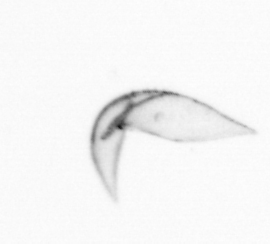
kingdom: Chromista
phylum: Ochrophyta
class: Bacillariophyceae
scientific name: Bacillariophyceae
